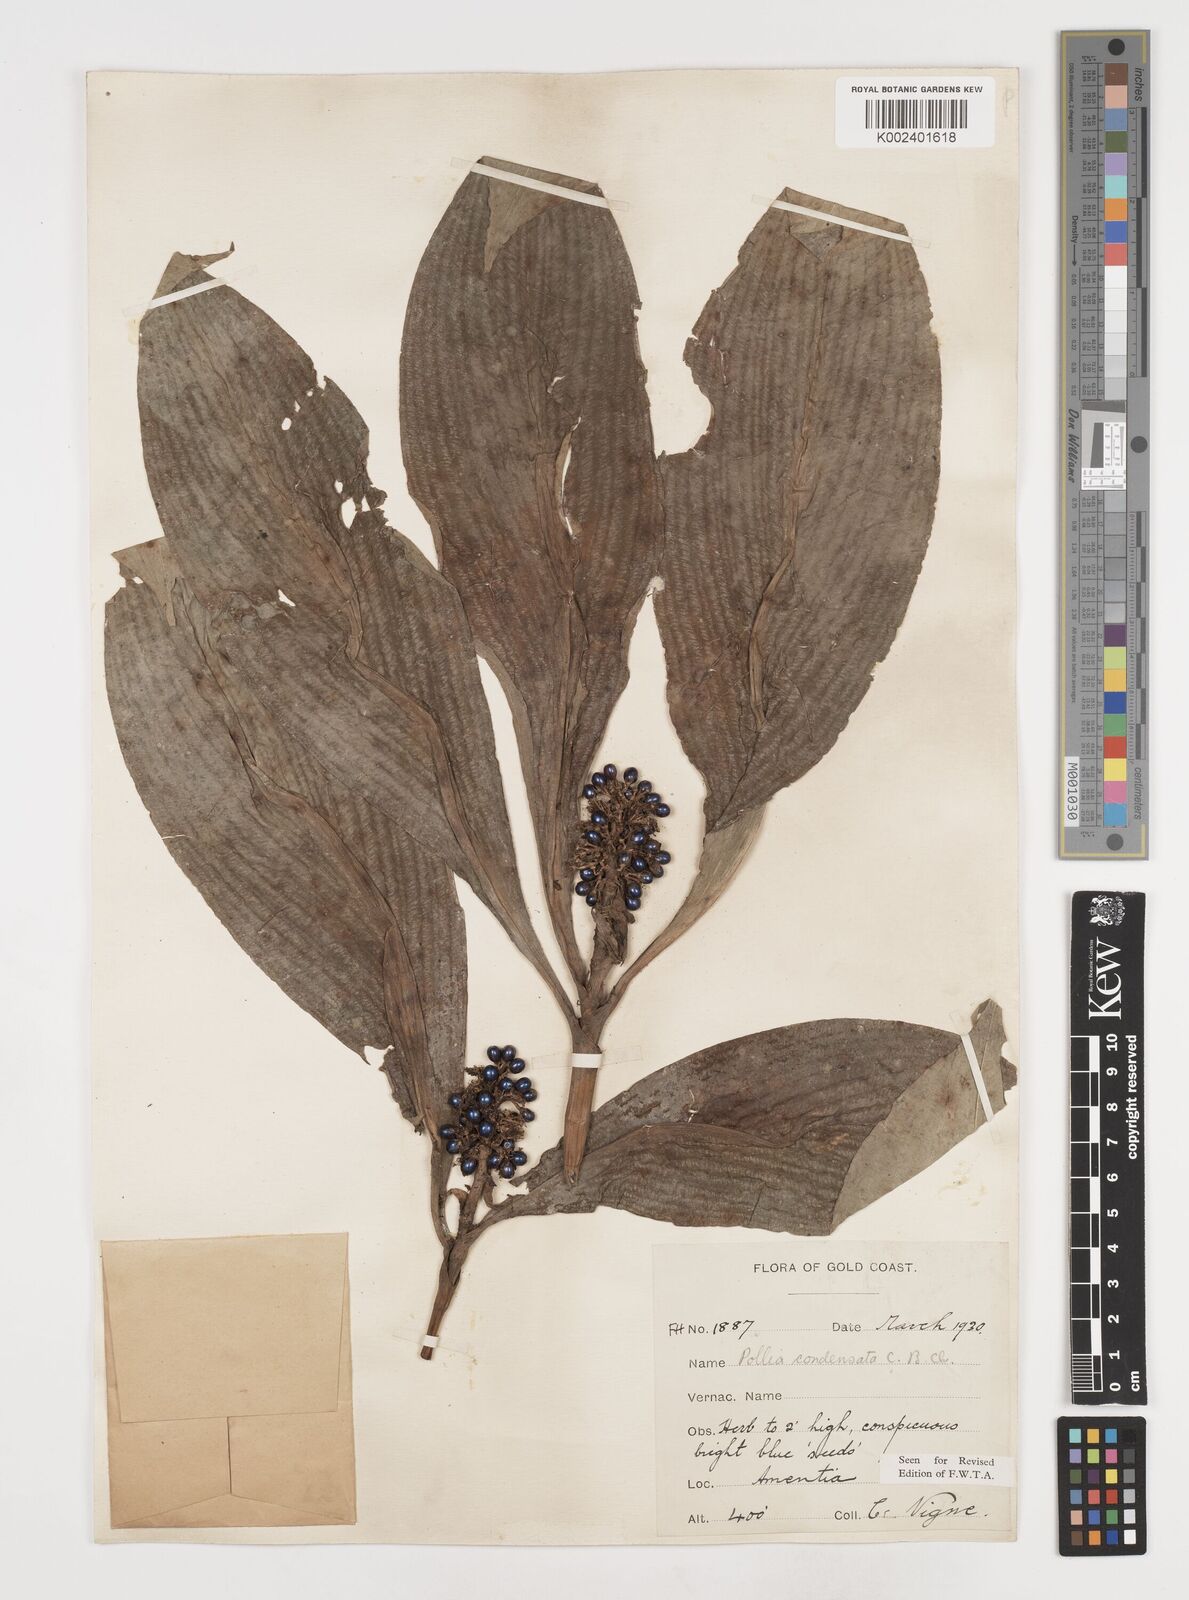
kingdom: Plantae
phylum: Tracheophyta
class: Liliopsida
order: Commelinales
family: Commelinaceae
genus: Pollia
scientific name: Pollia condensata
